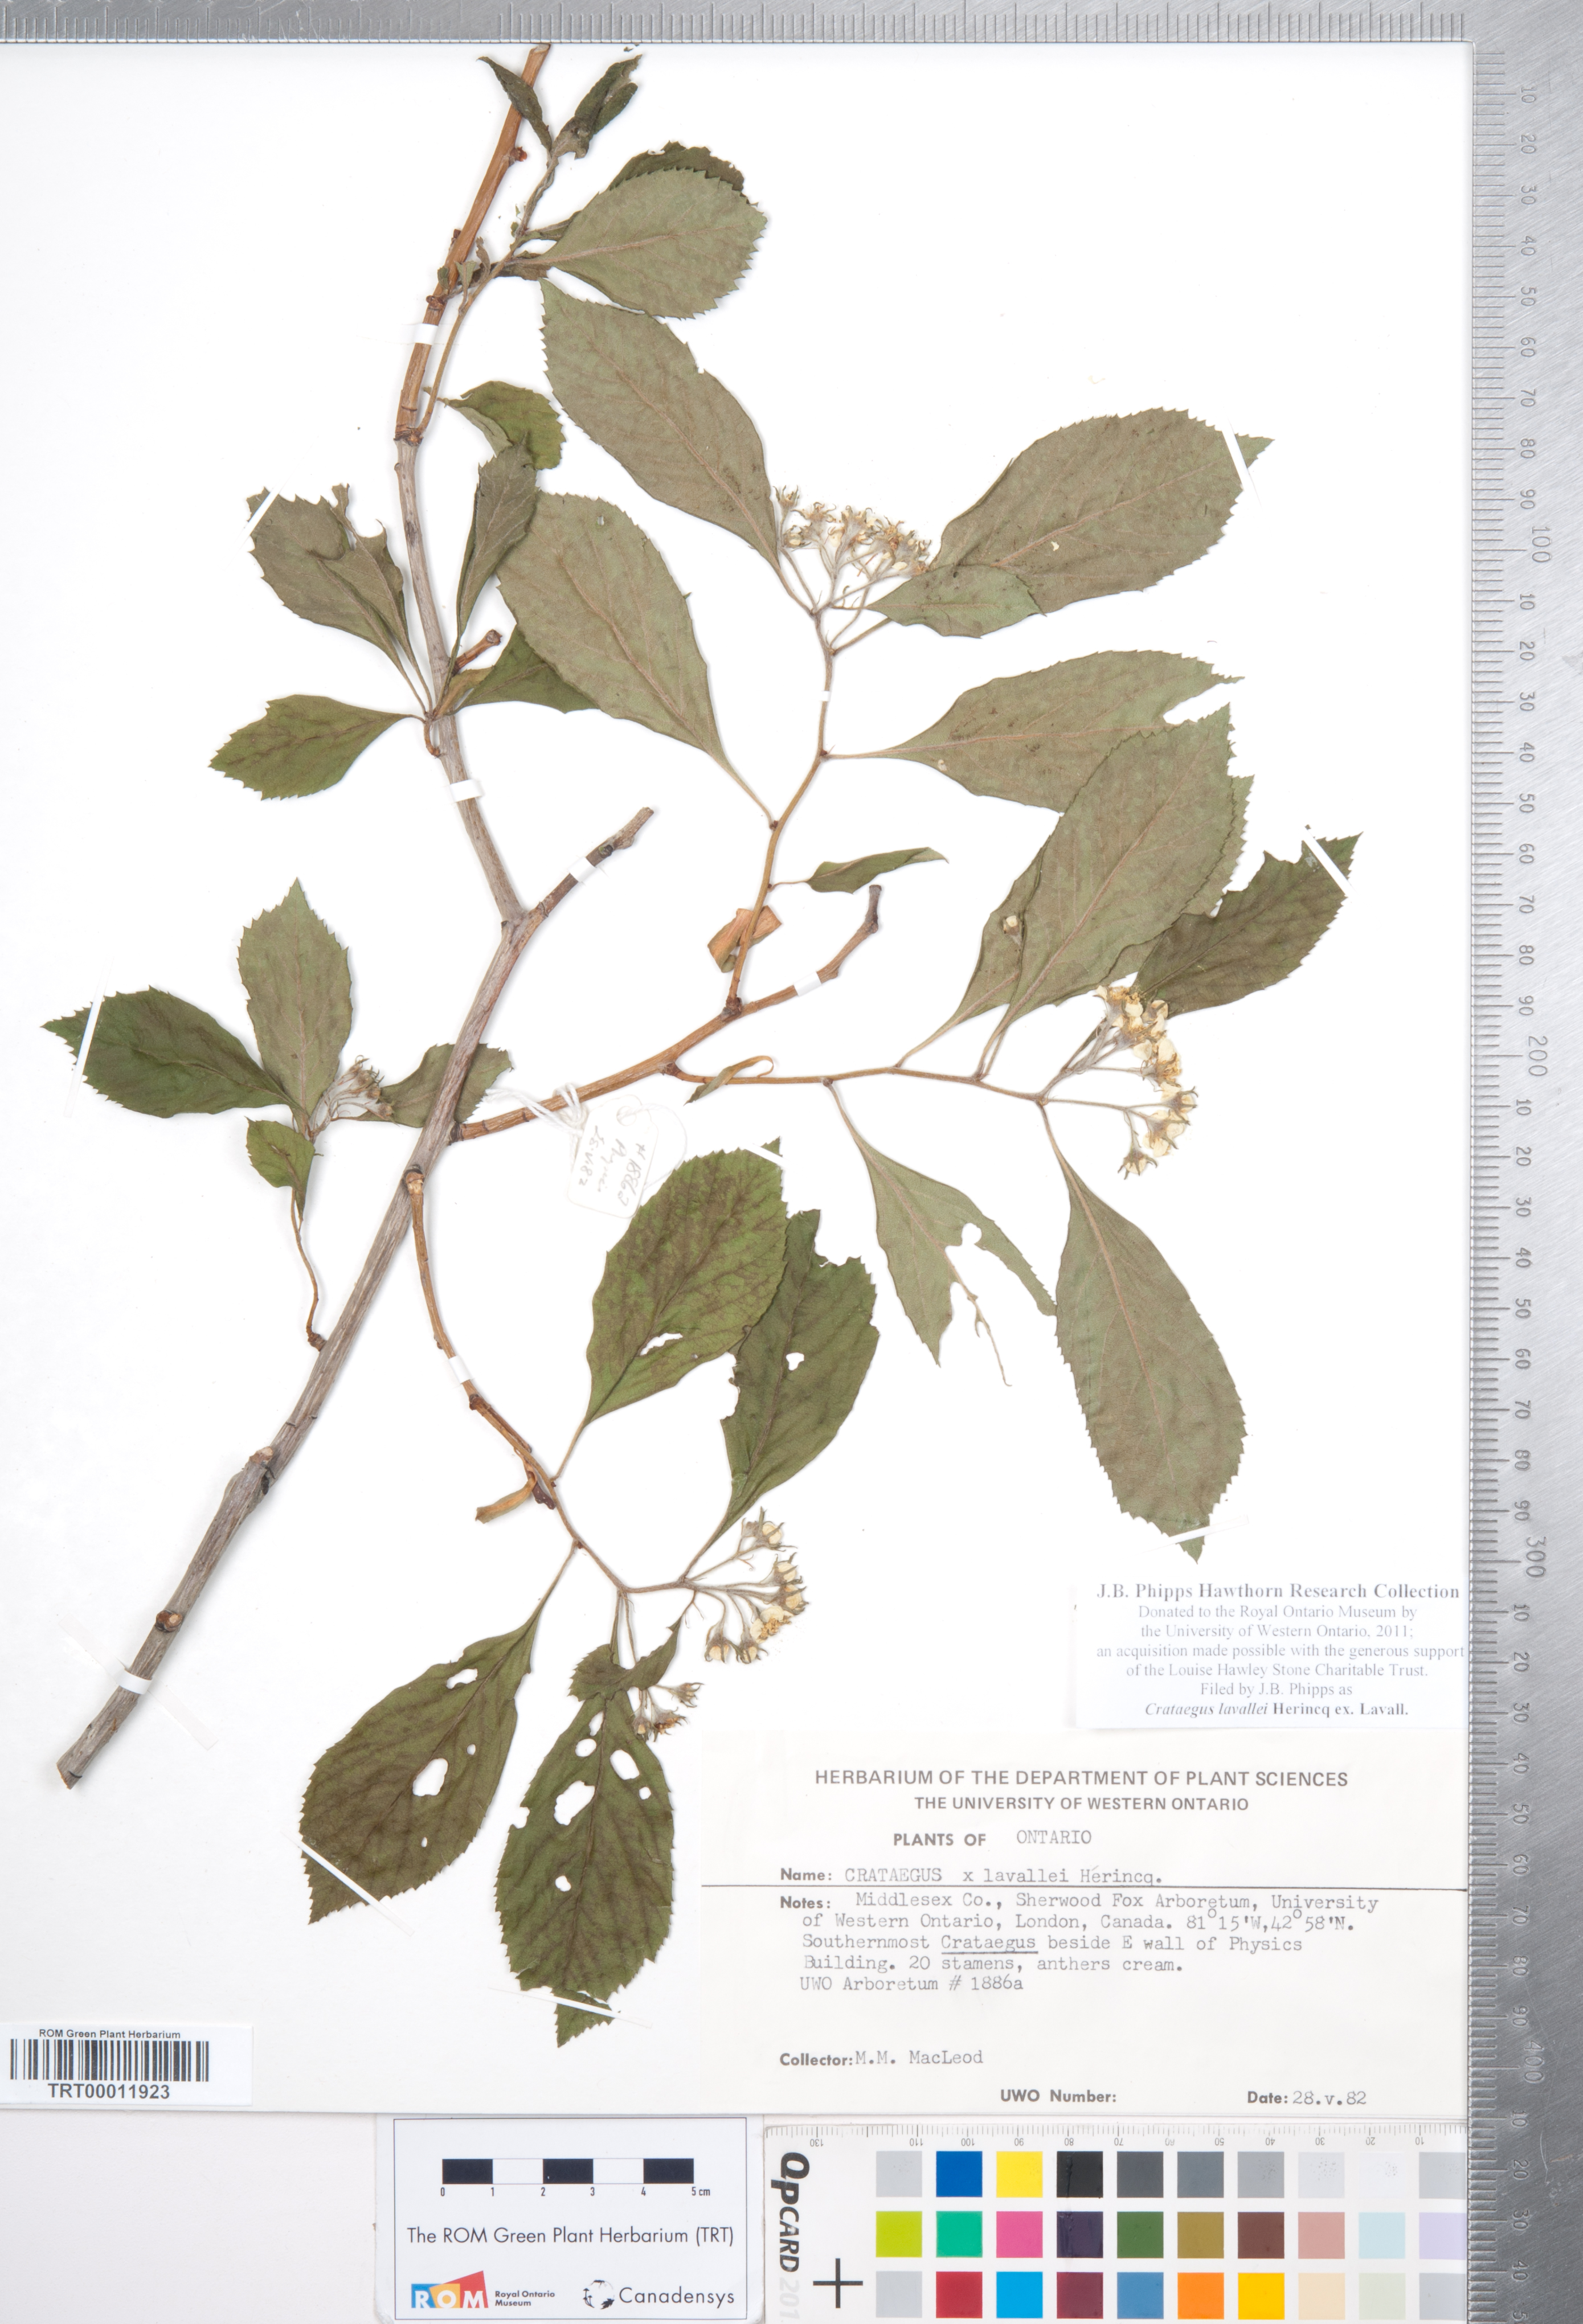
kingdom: Plantae
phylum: Tracheophyta
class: Magnoliopsida
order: Rosales
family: Rosaceae
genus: Crataegus
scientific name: Crataegus lavallei
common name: Lavell hawthorn
